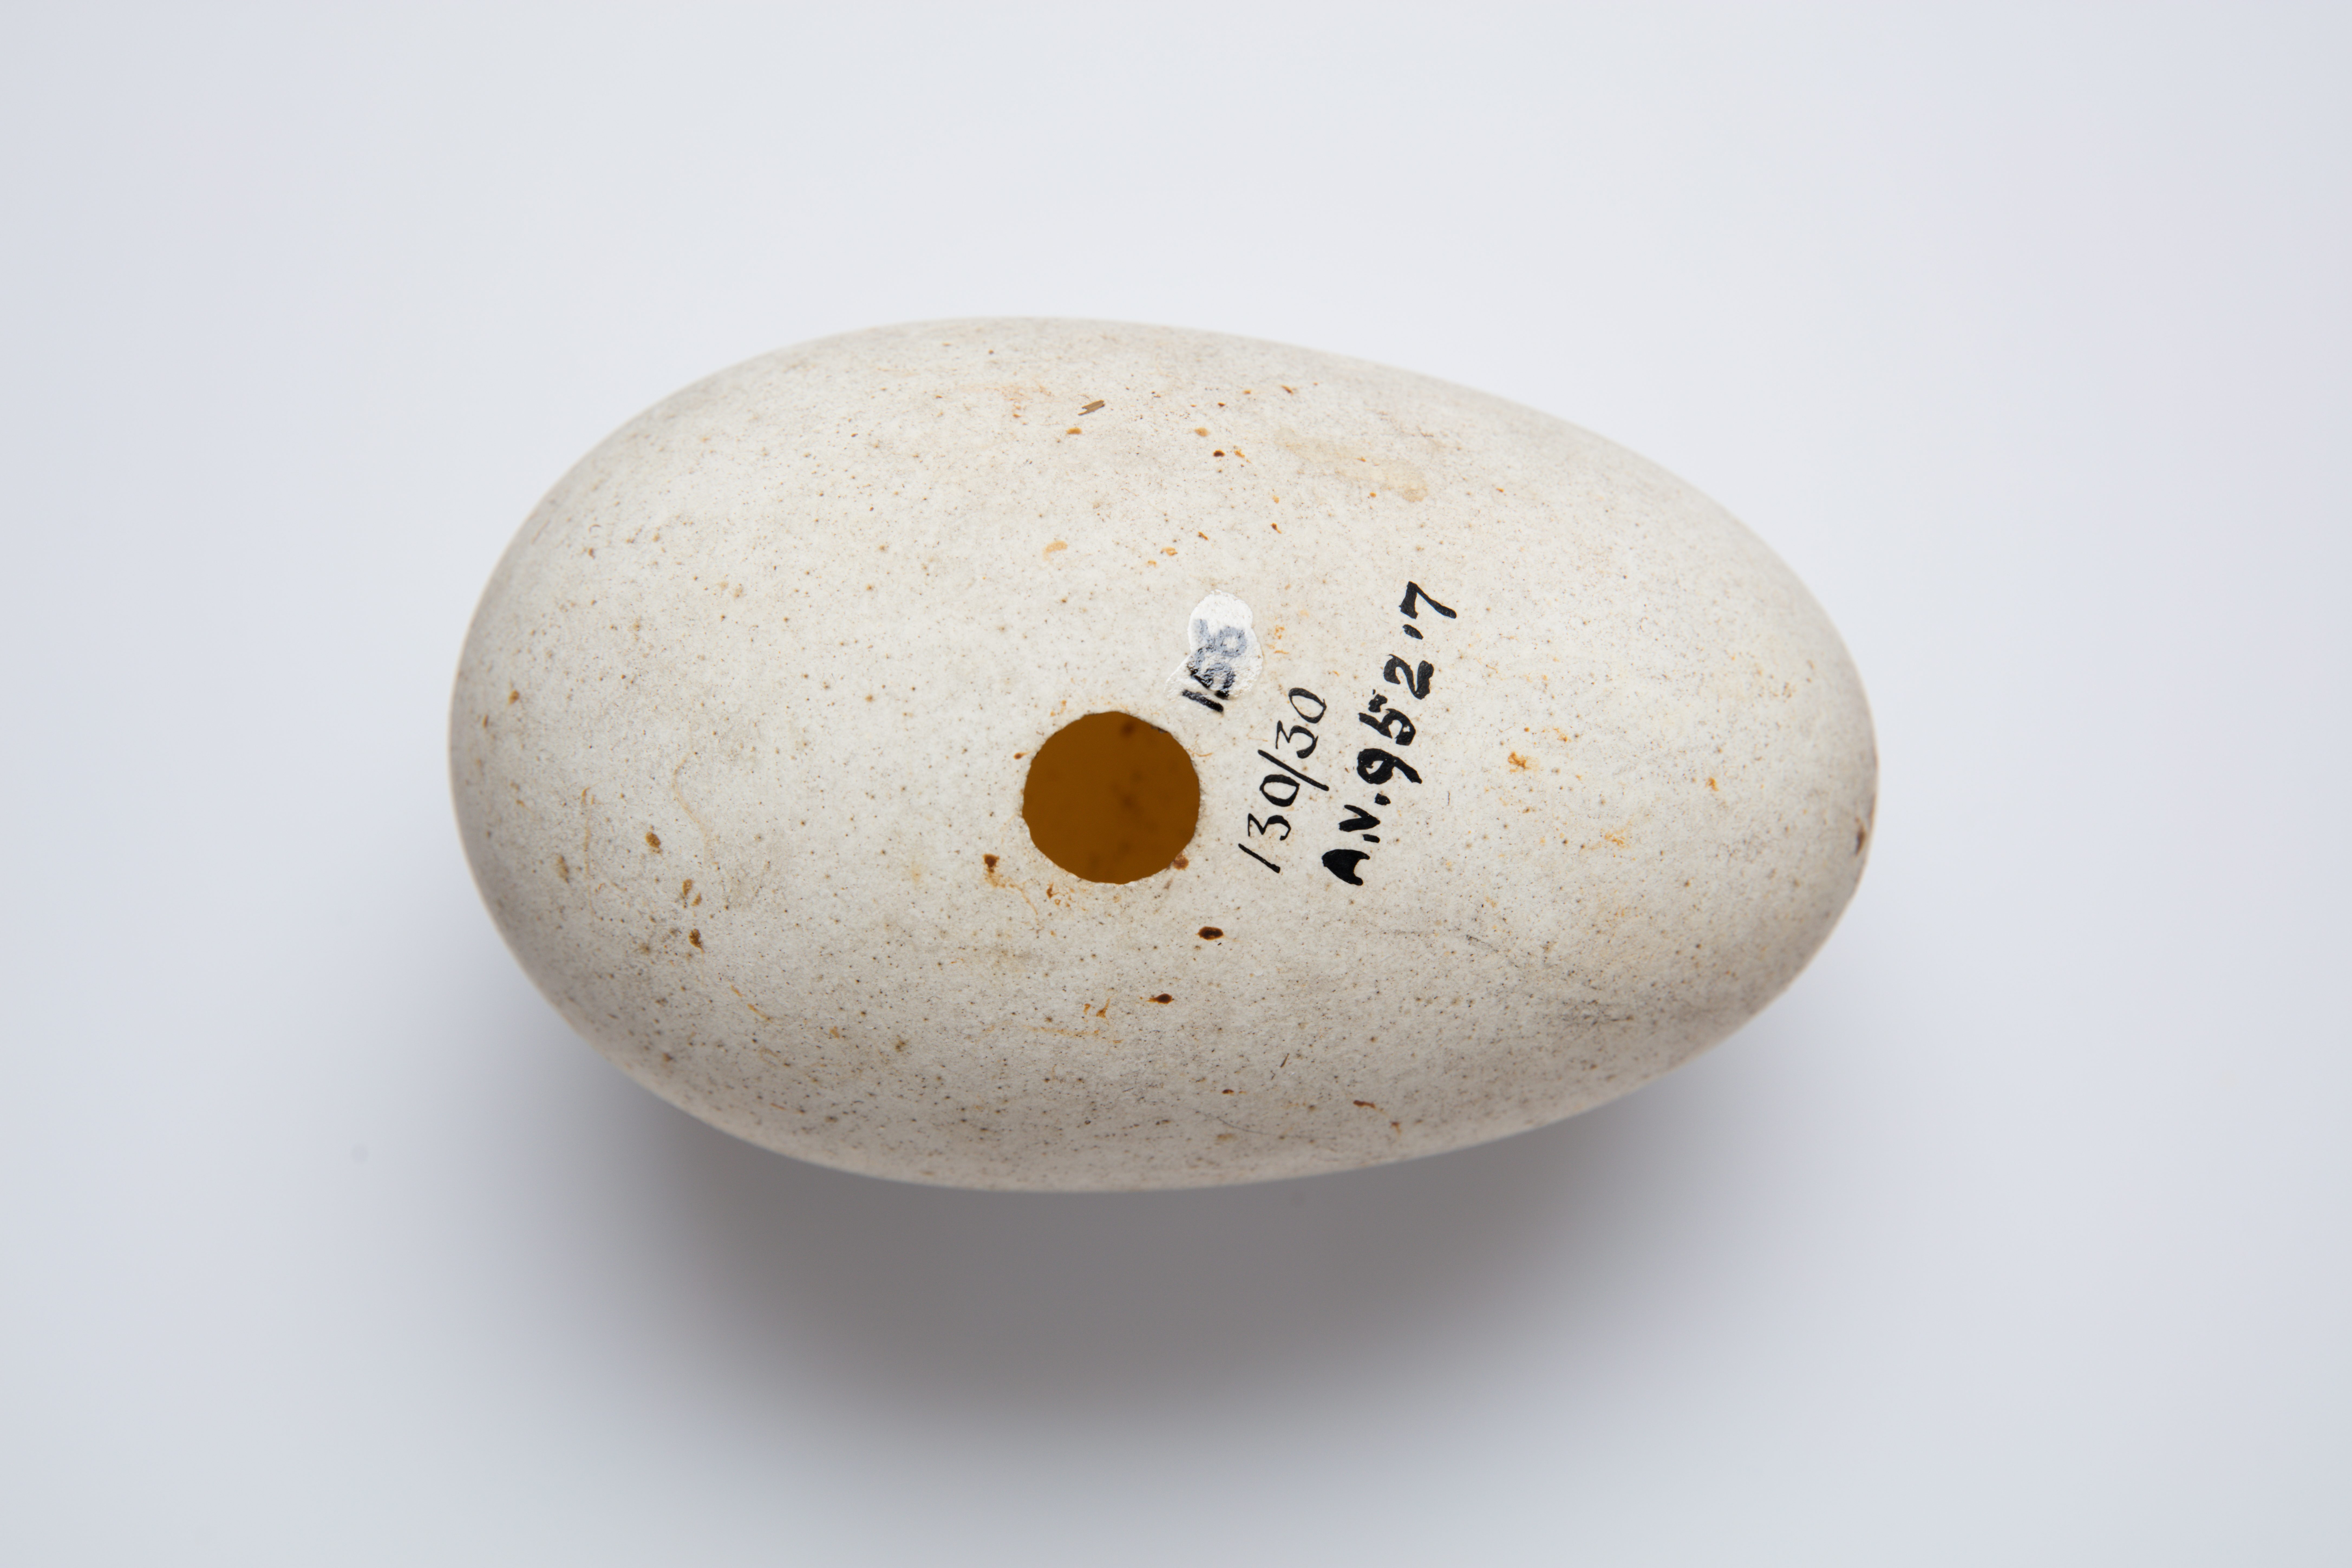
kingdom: Animalia
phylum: Chordata
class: Aves
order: Procellariiformes
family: Diomedeidae
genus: Diomedea
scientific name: Diomedea antipodensis
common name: Antipodean albatross
